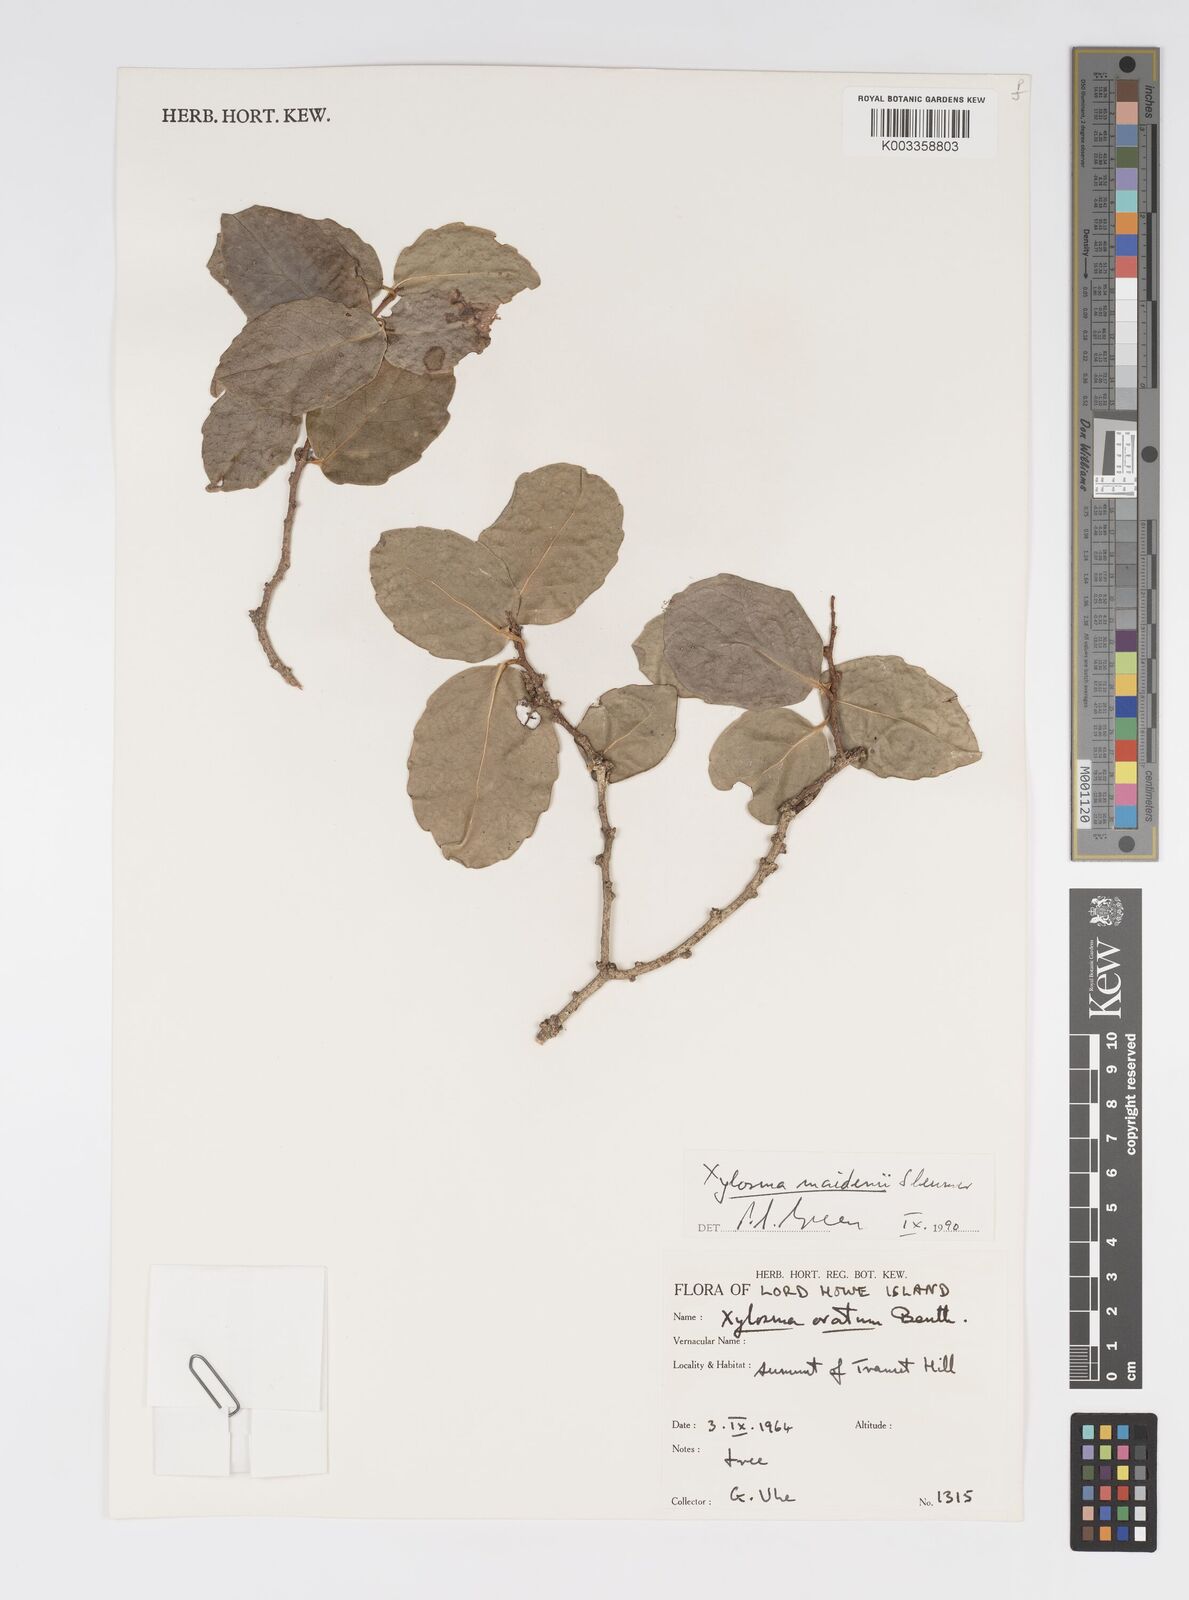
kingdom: Plantae
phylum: Tracheophyta
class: Magnoliopsida
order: Malpighiales
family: Salicaceae
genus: Xylosma
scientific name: Xylosma maidenii
